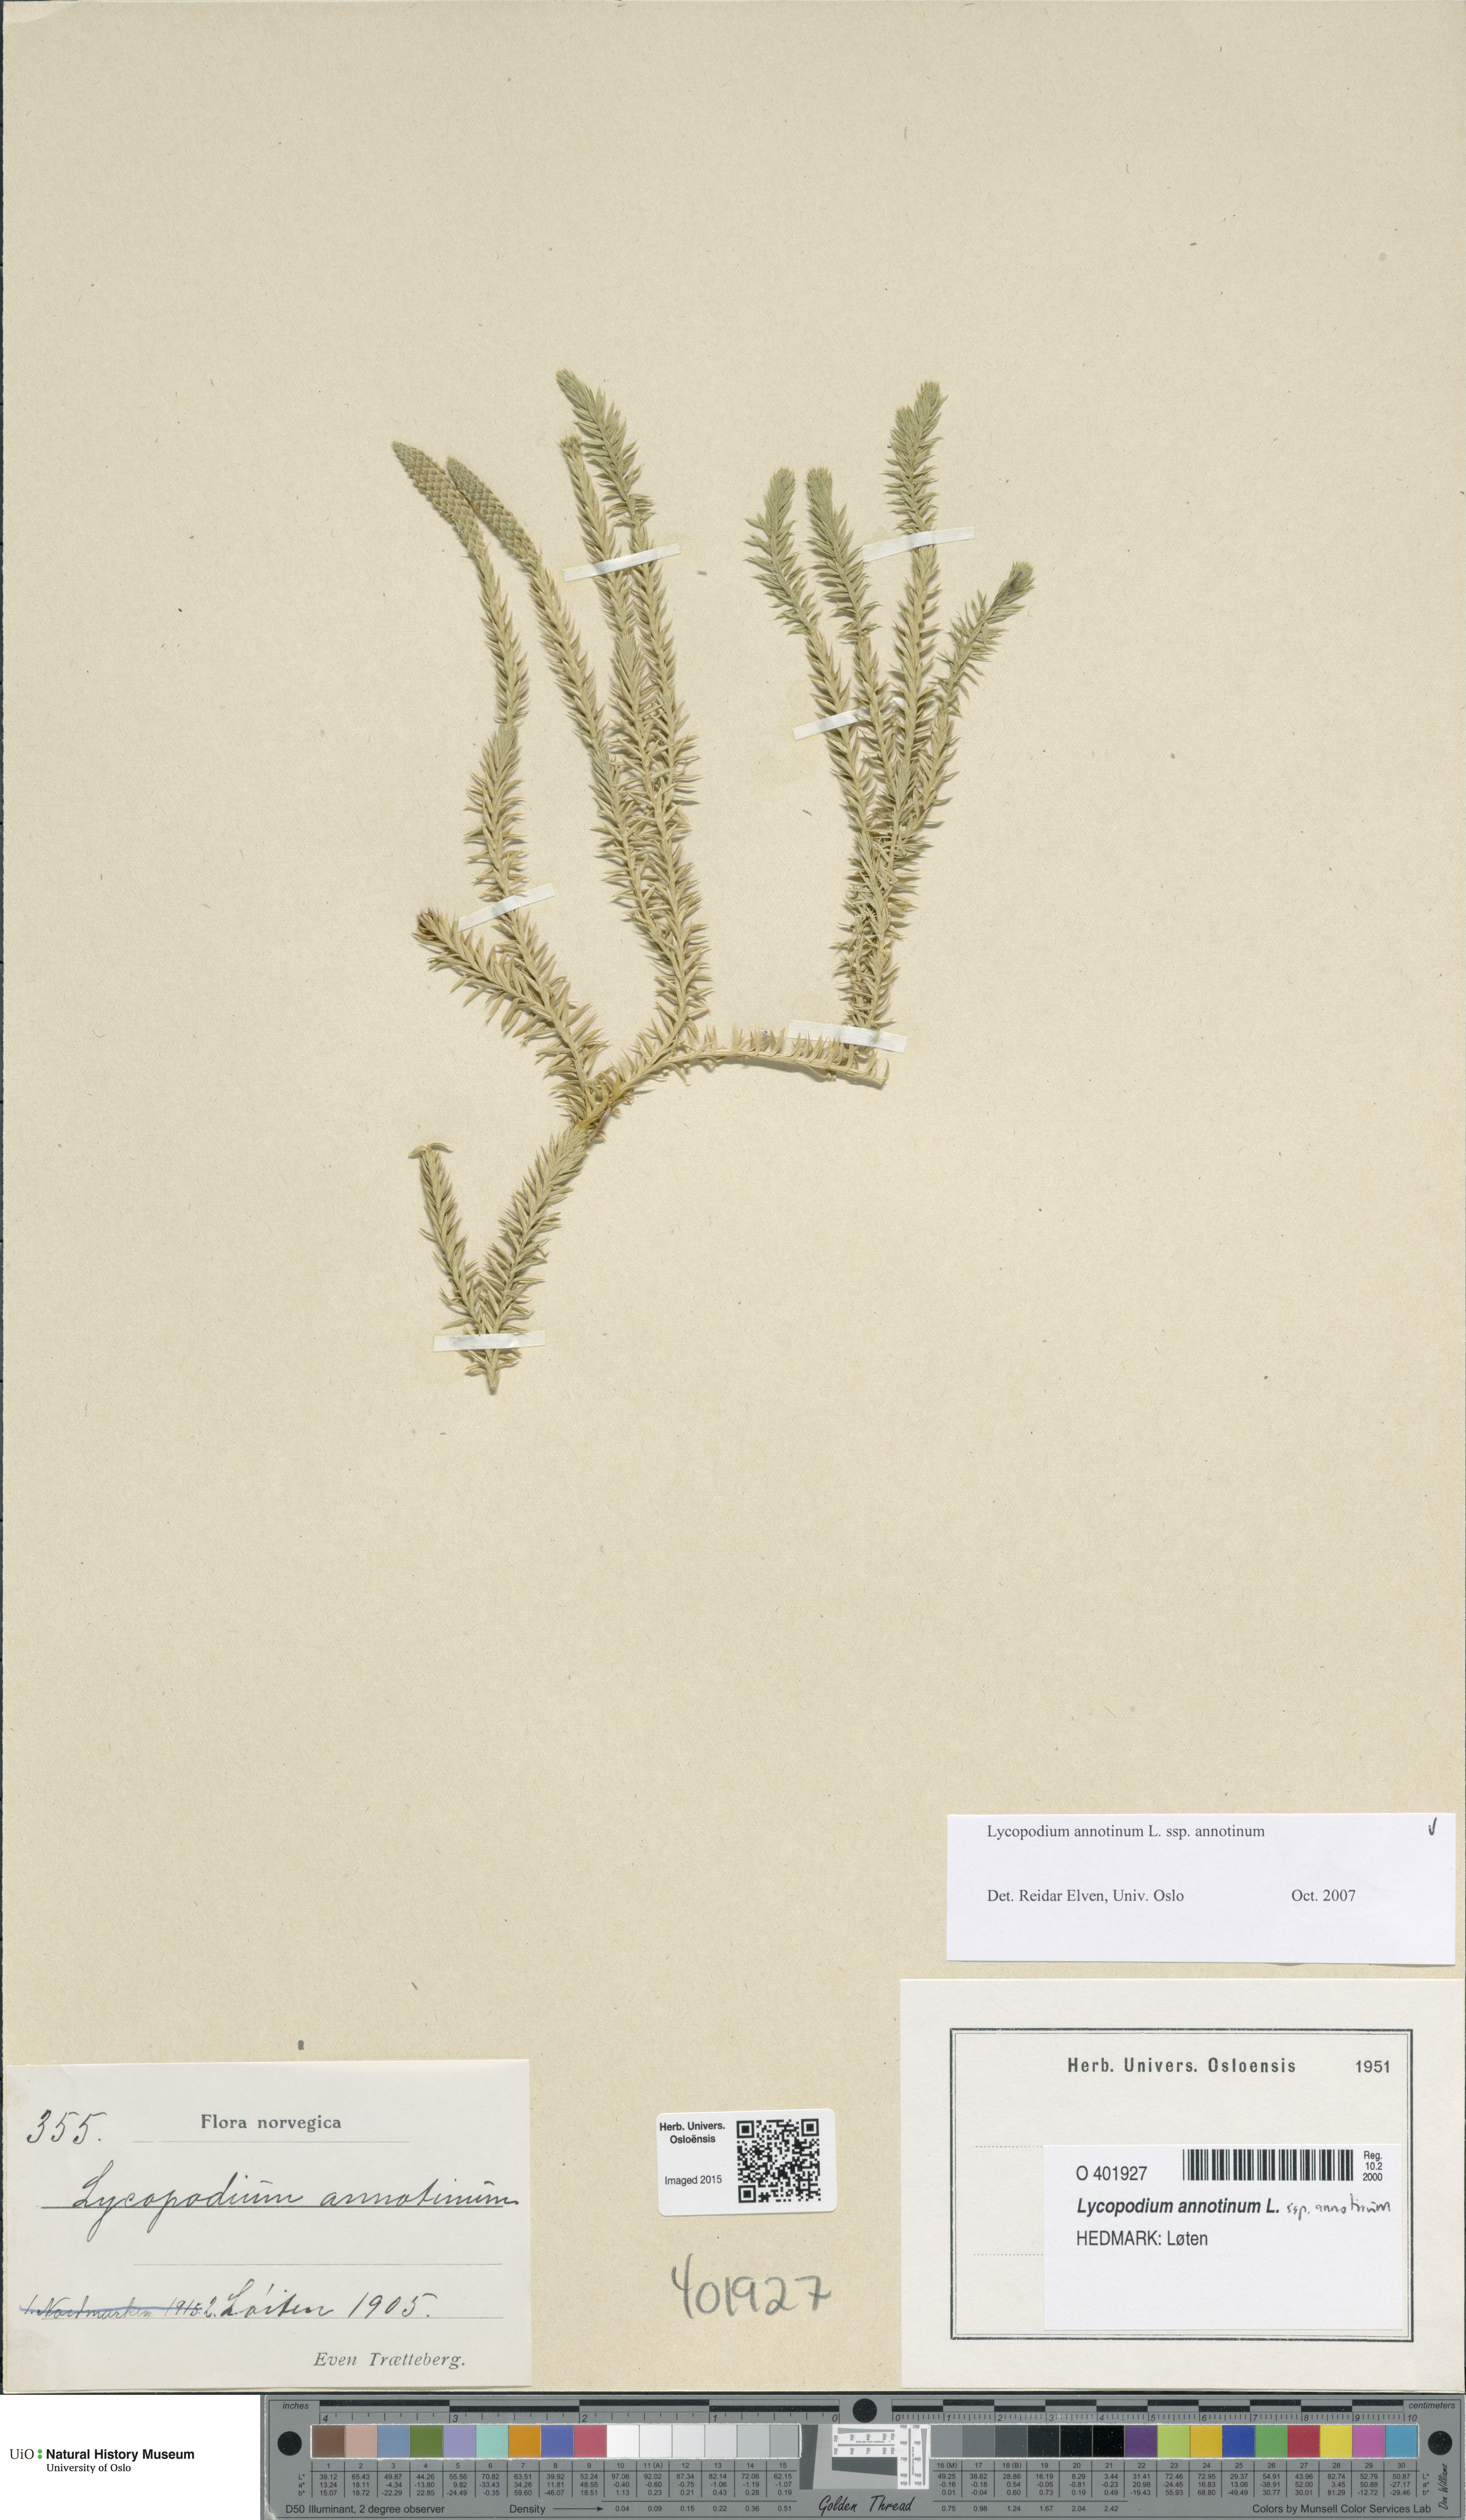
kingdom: Plantae
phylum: Tracheophyta
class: Lycopodiopsida
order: Lycopodiales
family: Lycopodiaceae
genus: Spinulum
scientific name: Spinulum annotinum
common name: Interrupted club-moss
